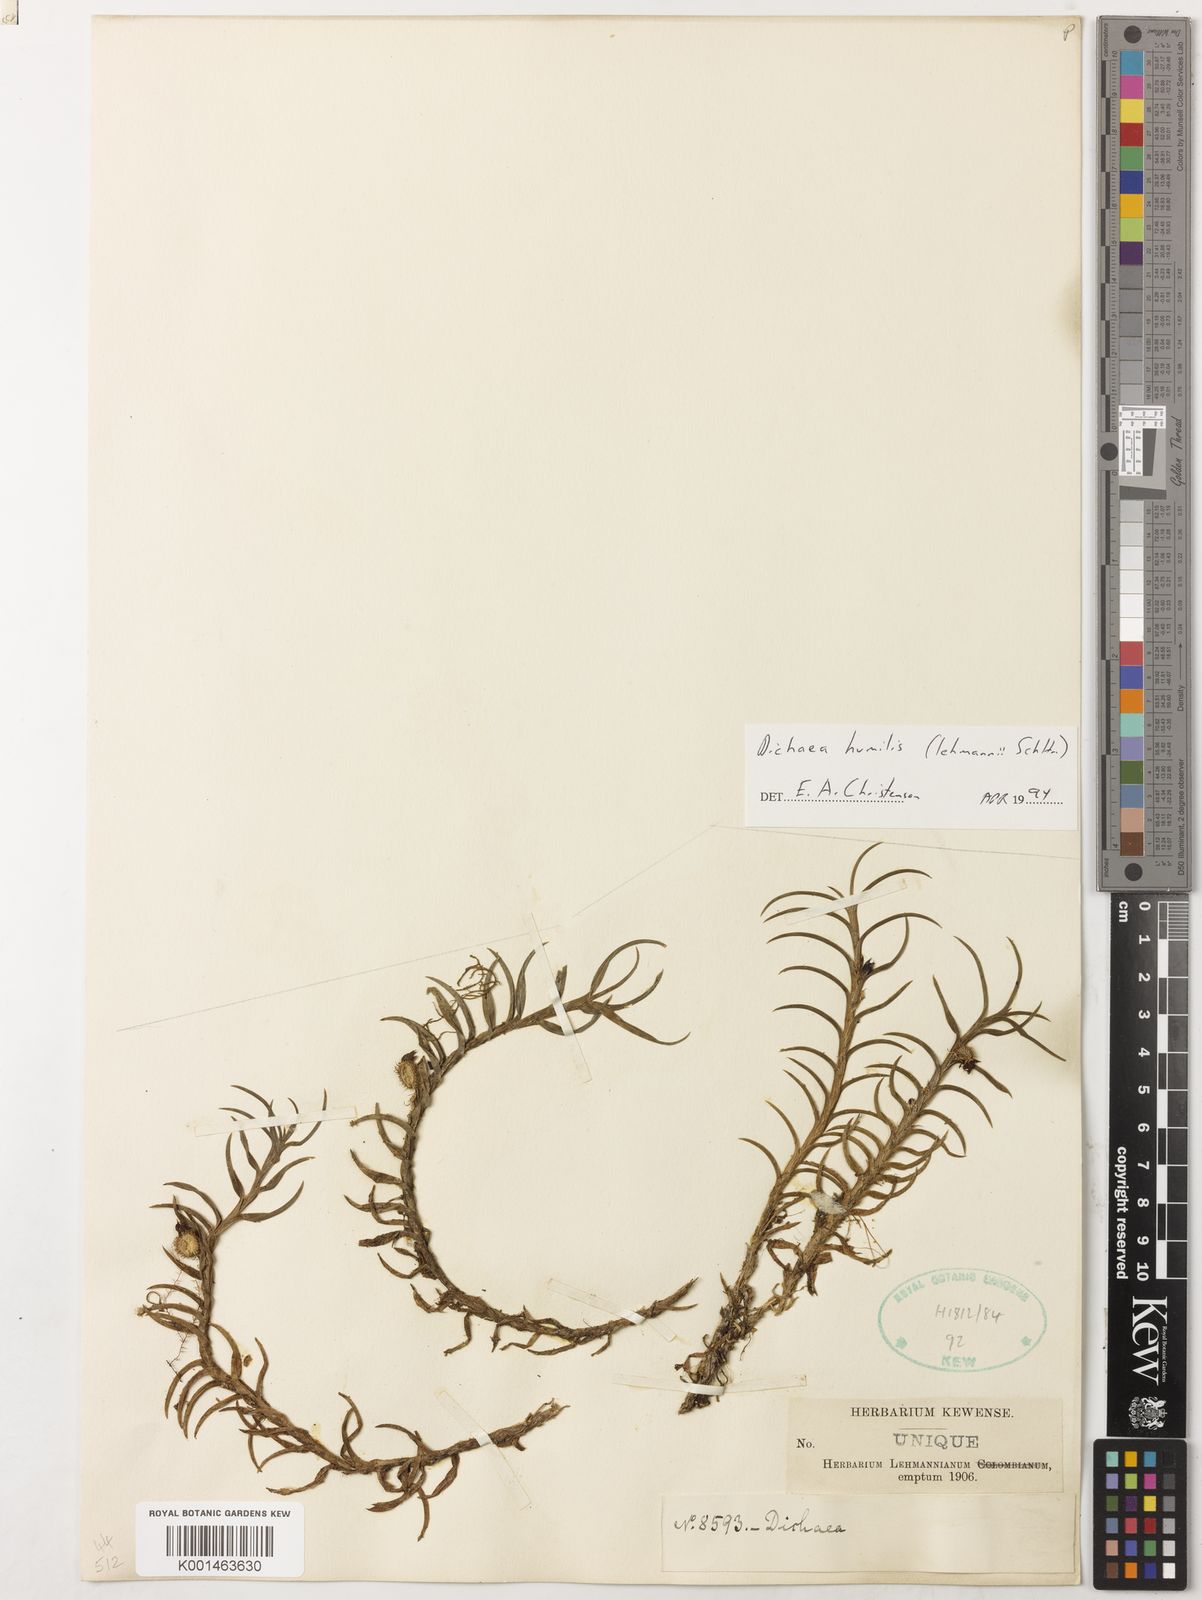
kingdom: Plantae
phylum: Tracheophyta
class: Liliopsida
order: Asparagales
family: Orchidaceae
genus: Dichaea
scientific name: Dichaea humilis
